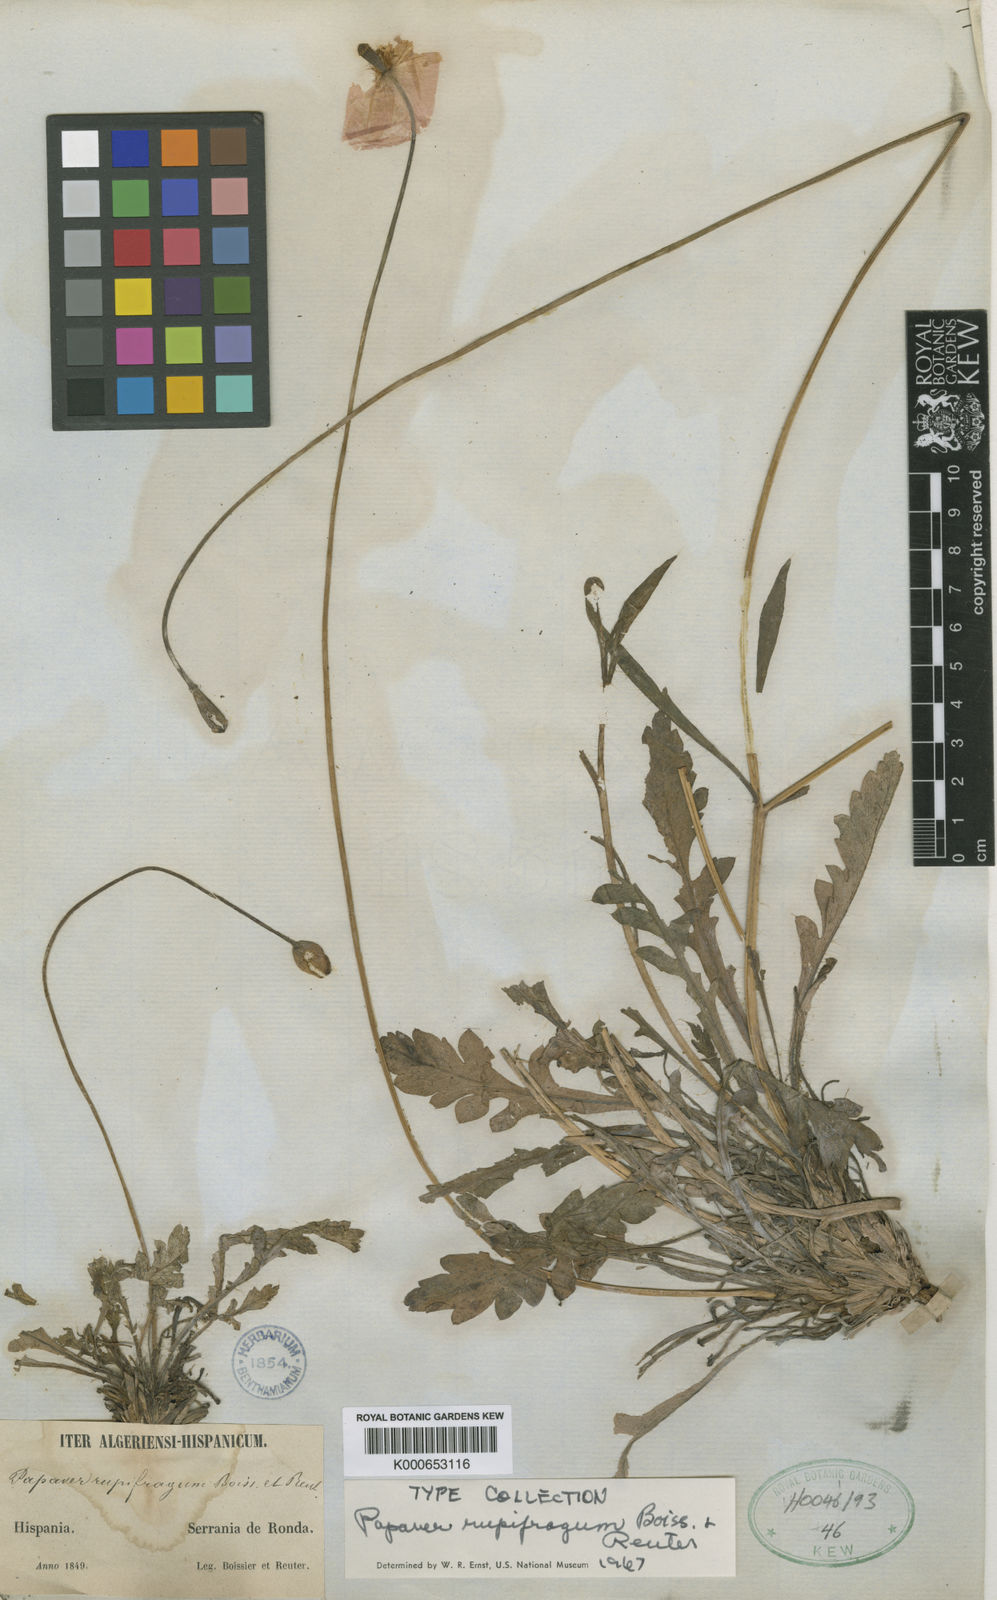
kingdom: Plantae
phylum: Tracheophyta
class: Magnoliopsida
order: Ranunculales
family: Papaveraceae
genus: Papaver
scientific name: Papaver rupifragum
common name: Spanish poppy
